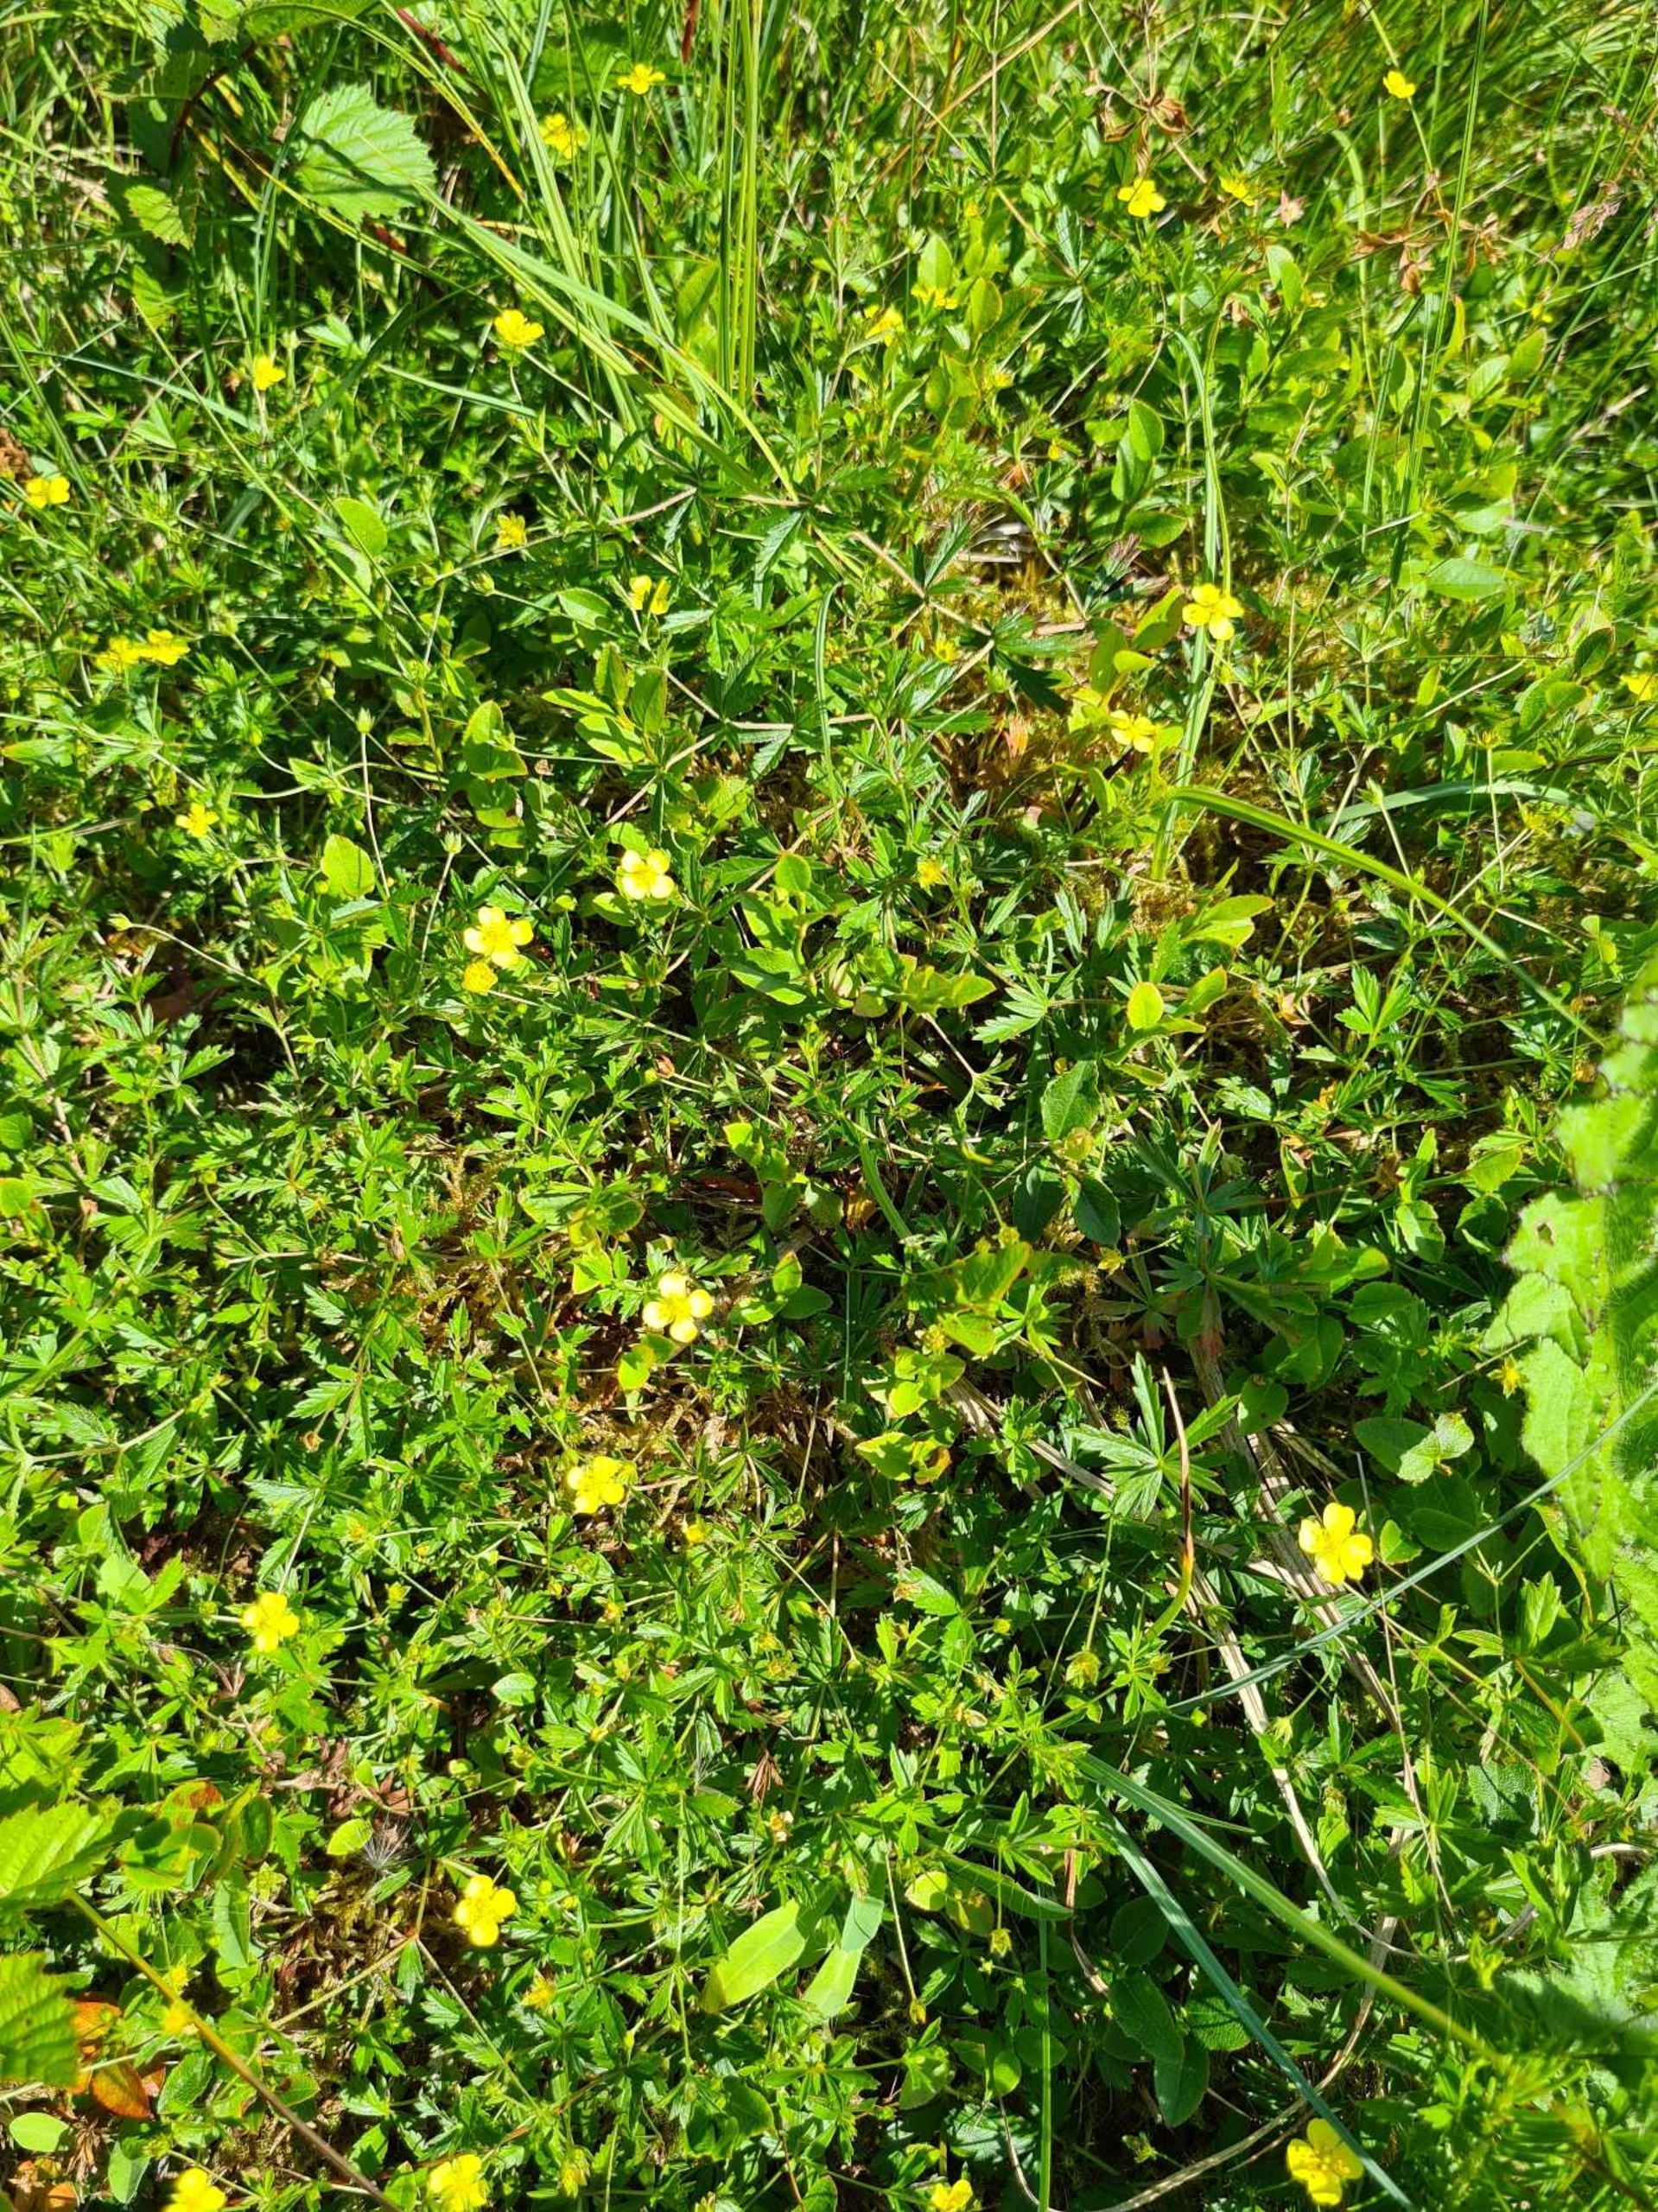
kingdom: Plantae
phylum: Tracheophyta
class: Magnoliopsida
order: Rosales
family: Rosaceae
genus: Potentilla
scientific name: Potentilla erecta
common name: Tormentil
